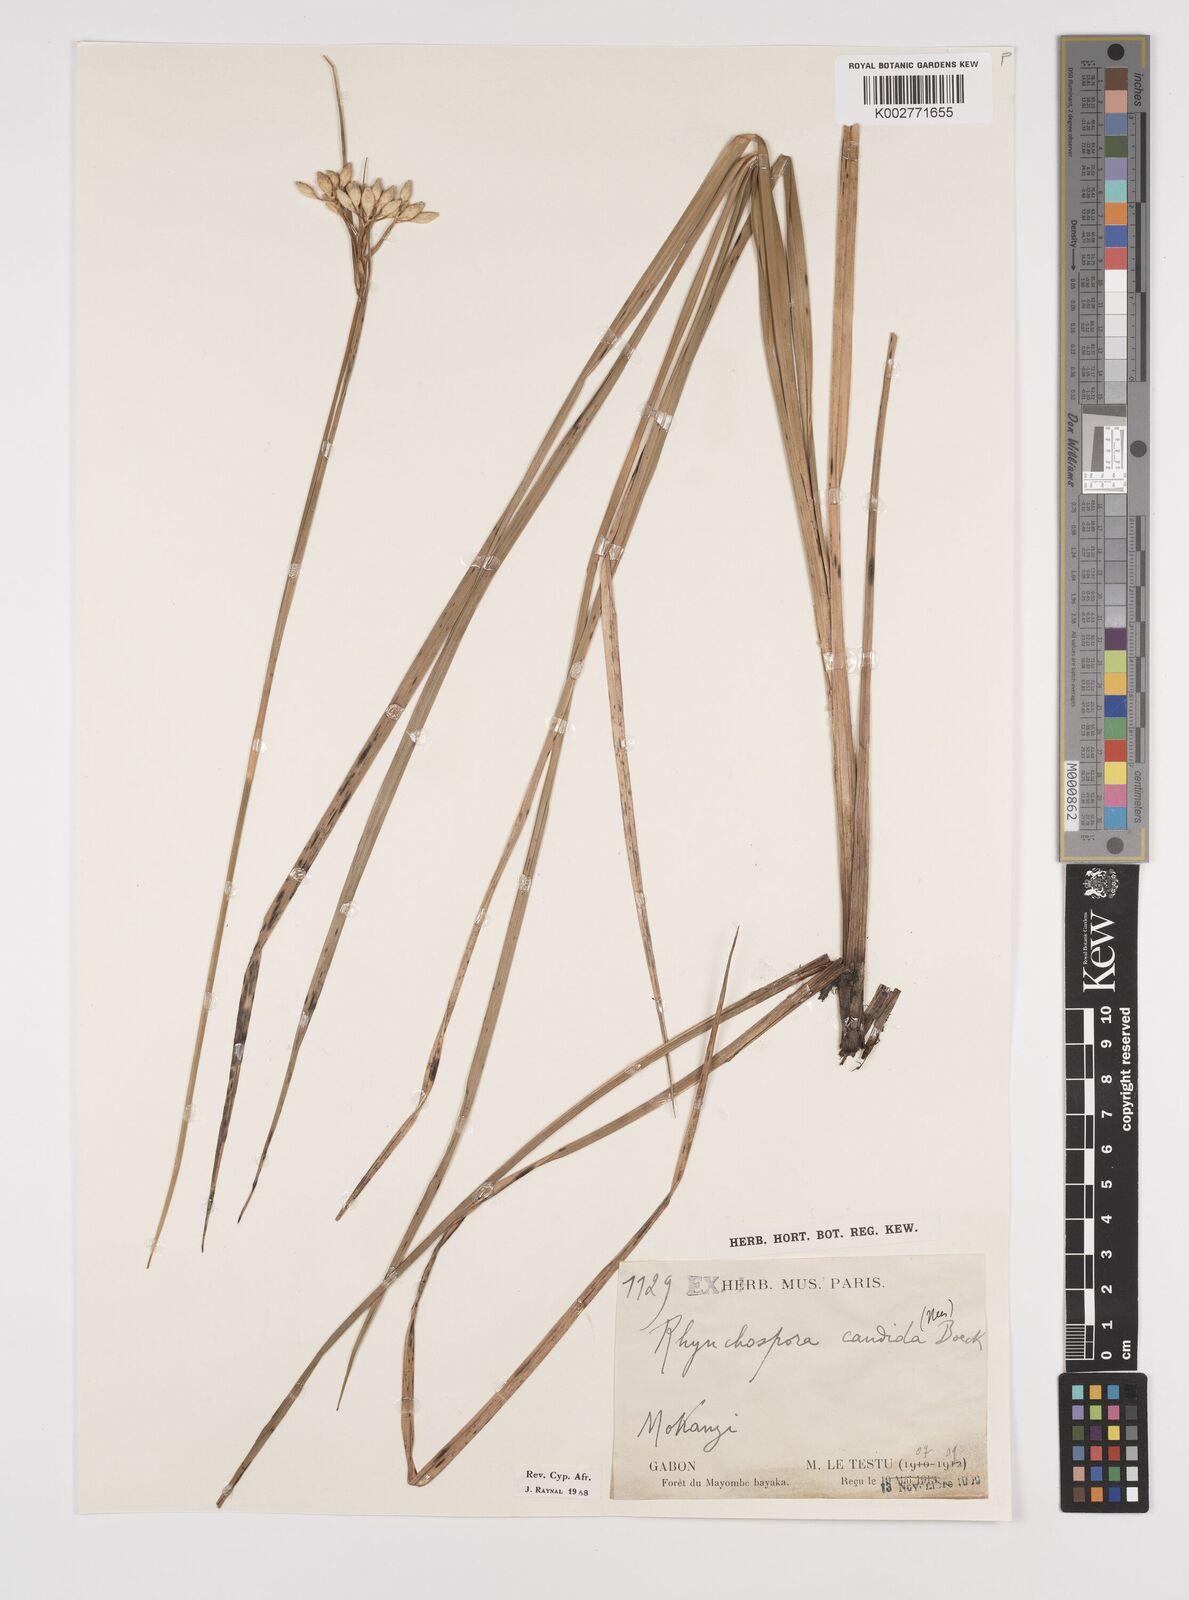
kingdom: Plantae
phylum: Tracheophyta
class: Liliopsida
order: Poales
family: Cyperaceae
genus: Rhynchospora
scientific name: Rhynchospora candida
